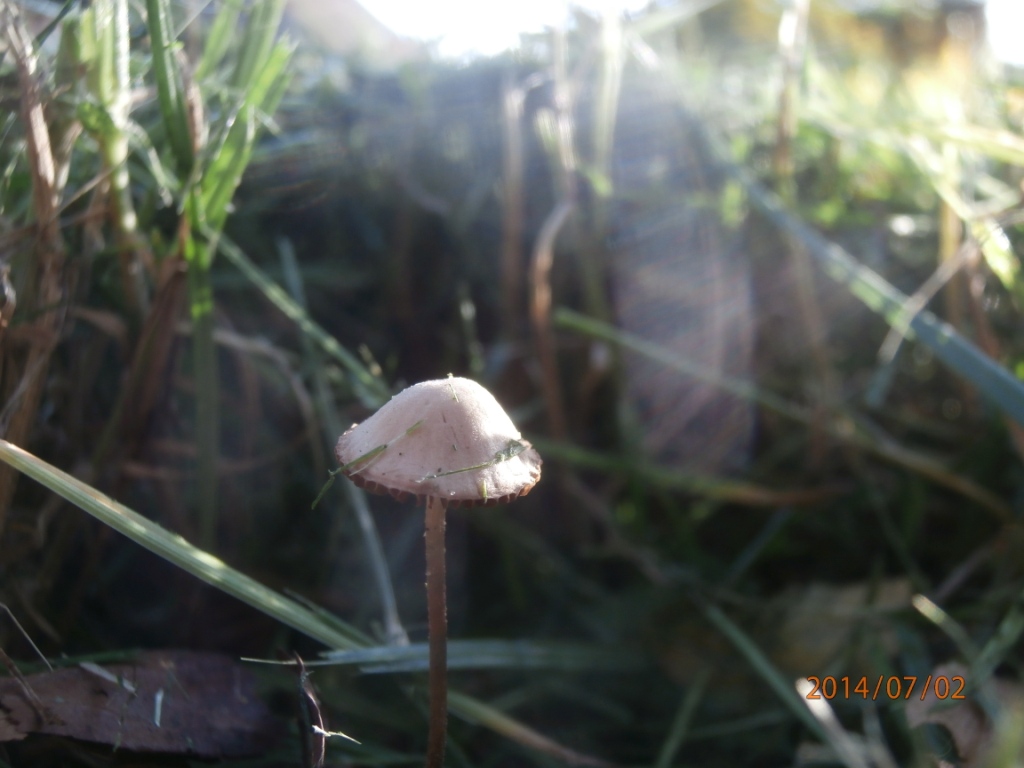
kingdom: Fungi
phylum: Basidiomycota
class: Agaricomycetes
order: Agaricales
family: Bolbitiaceae
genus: Panaeolina
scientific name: Panaeolina foenisecii
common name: høslætsvamp
